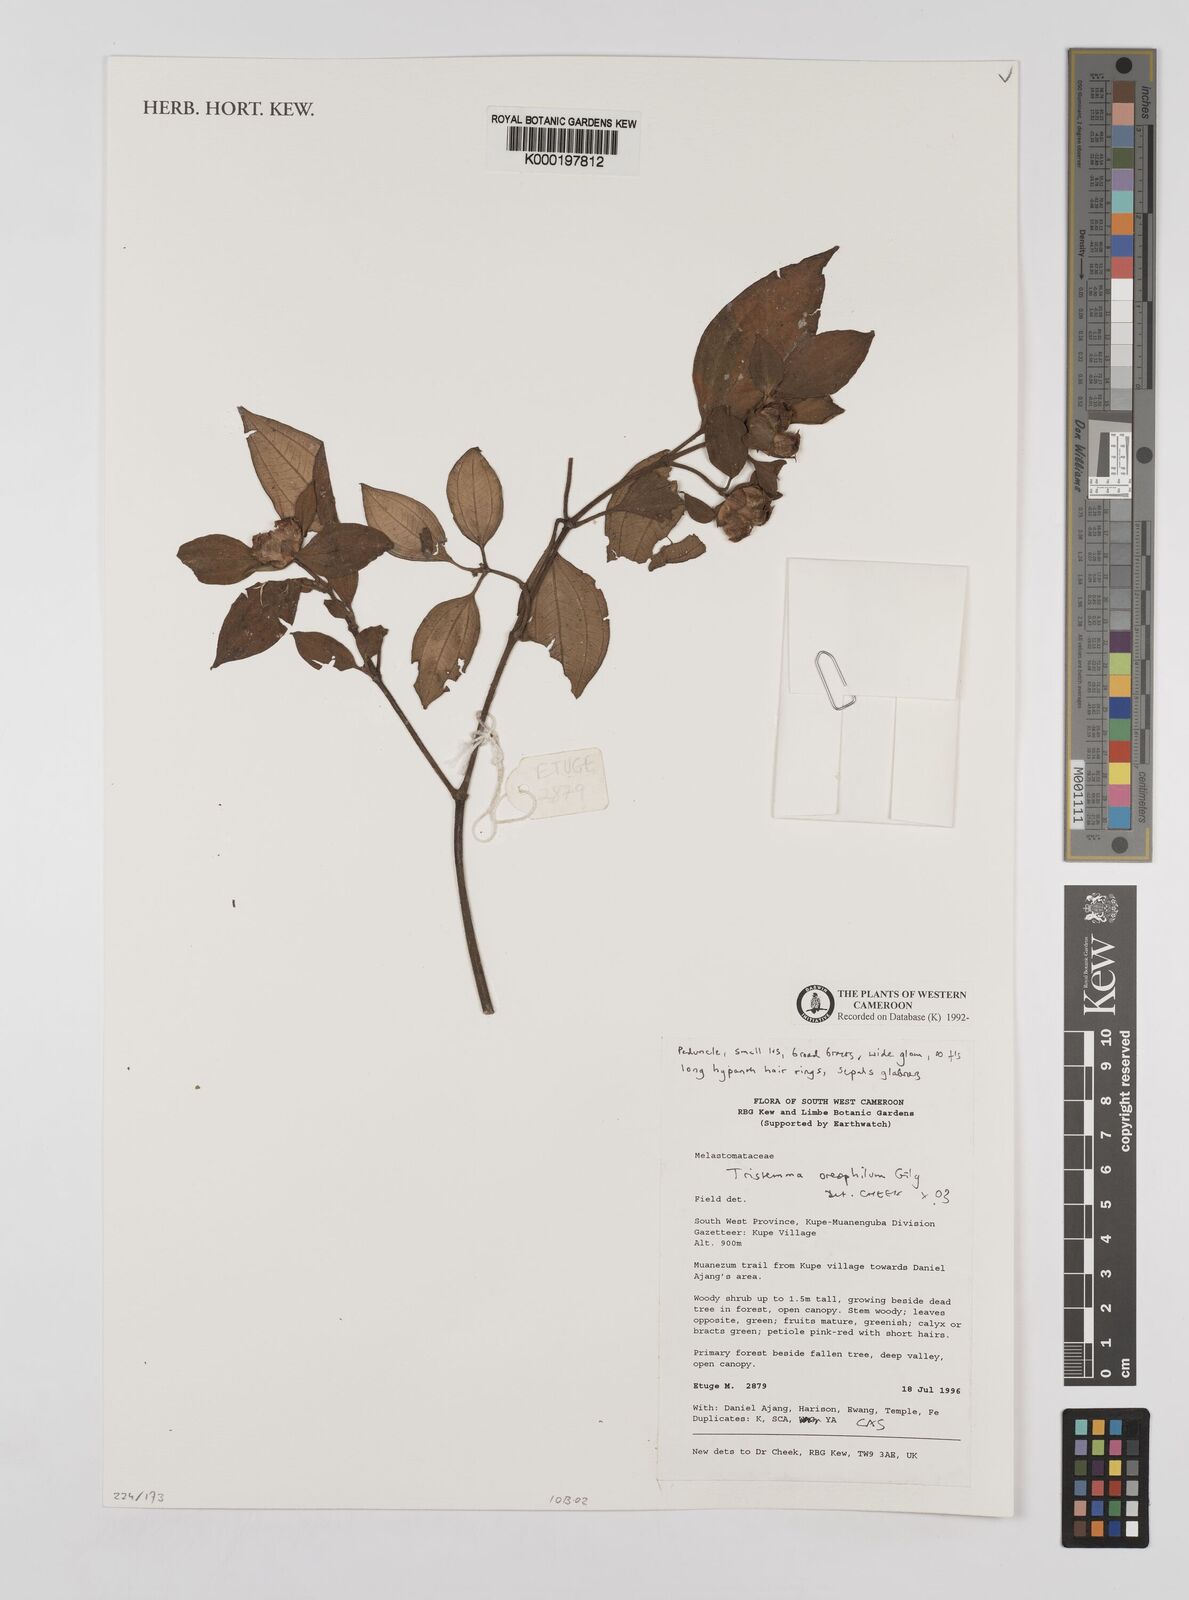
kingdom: Plantae
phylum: Tracheophyta
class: Magnoliopsida
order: Myrtales
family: Melastomataceae
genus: Tristemma
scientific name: Tristemma oreophilum
